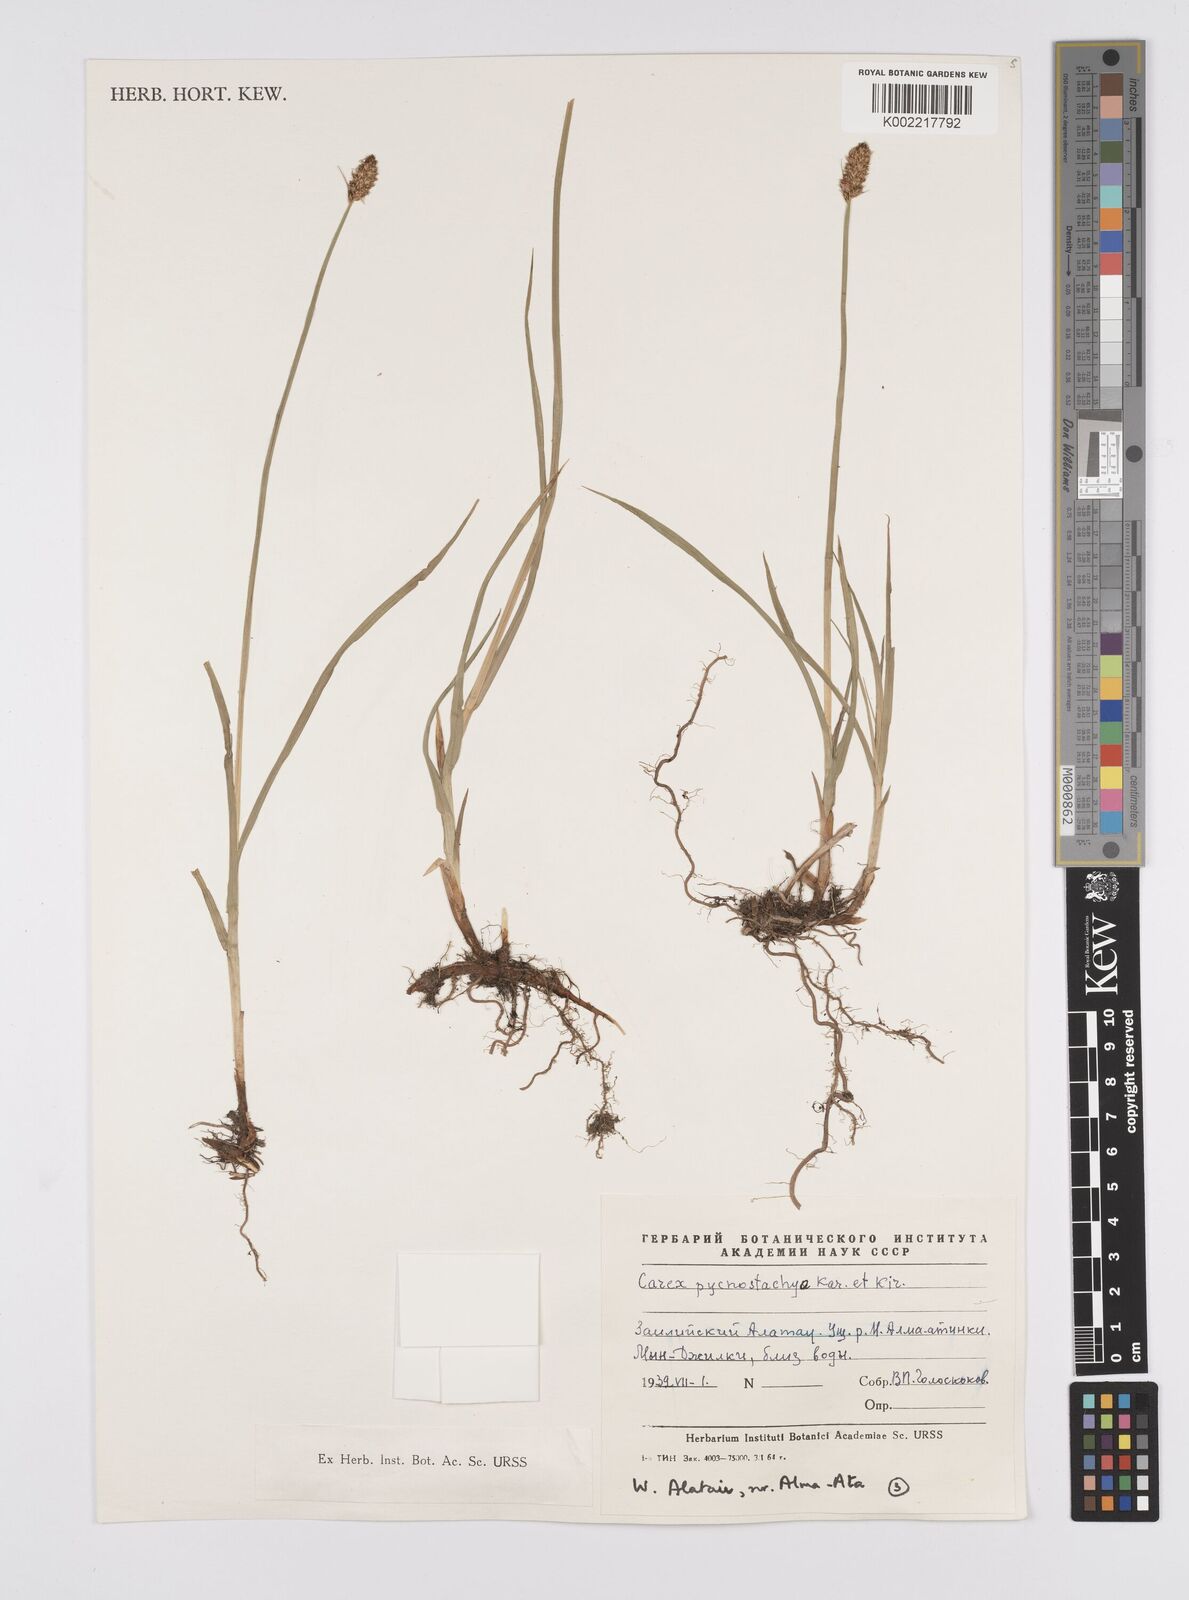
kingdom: Plantae
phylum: Tracheophyta
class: Liliopsida
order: Poales
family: Cyperaceae
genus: Carex
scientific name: Carex curaica
